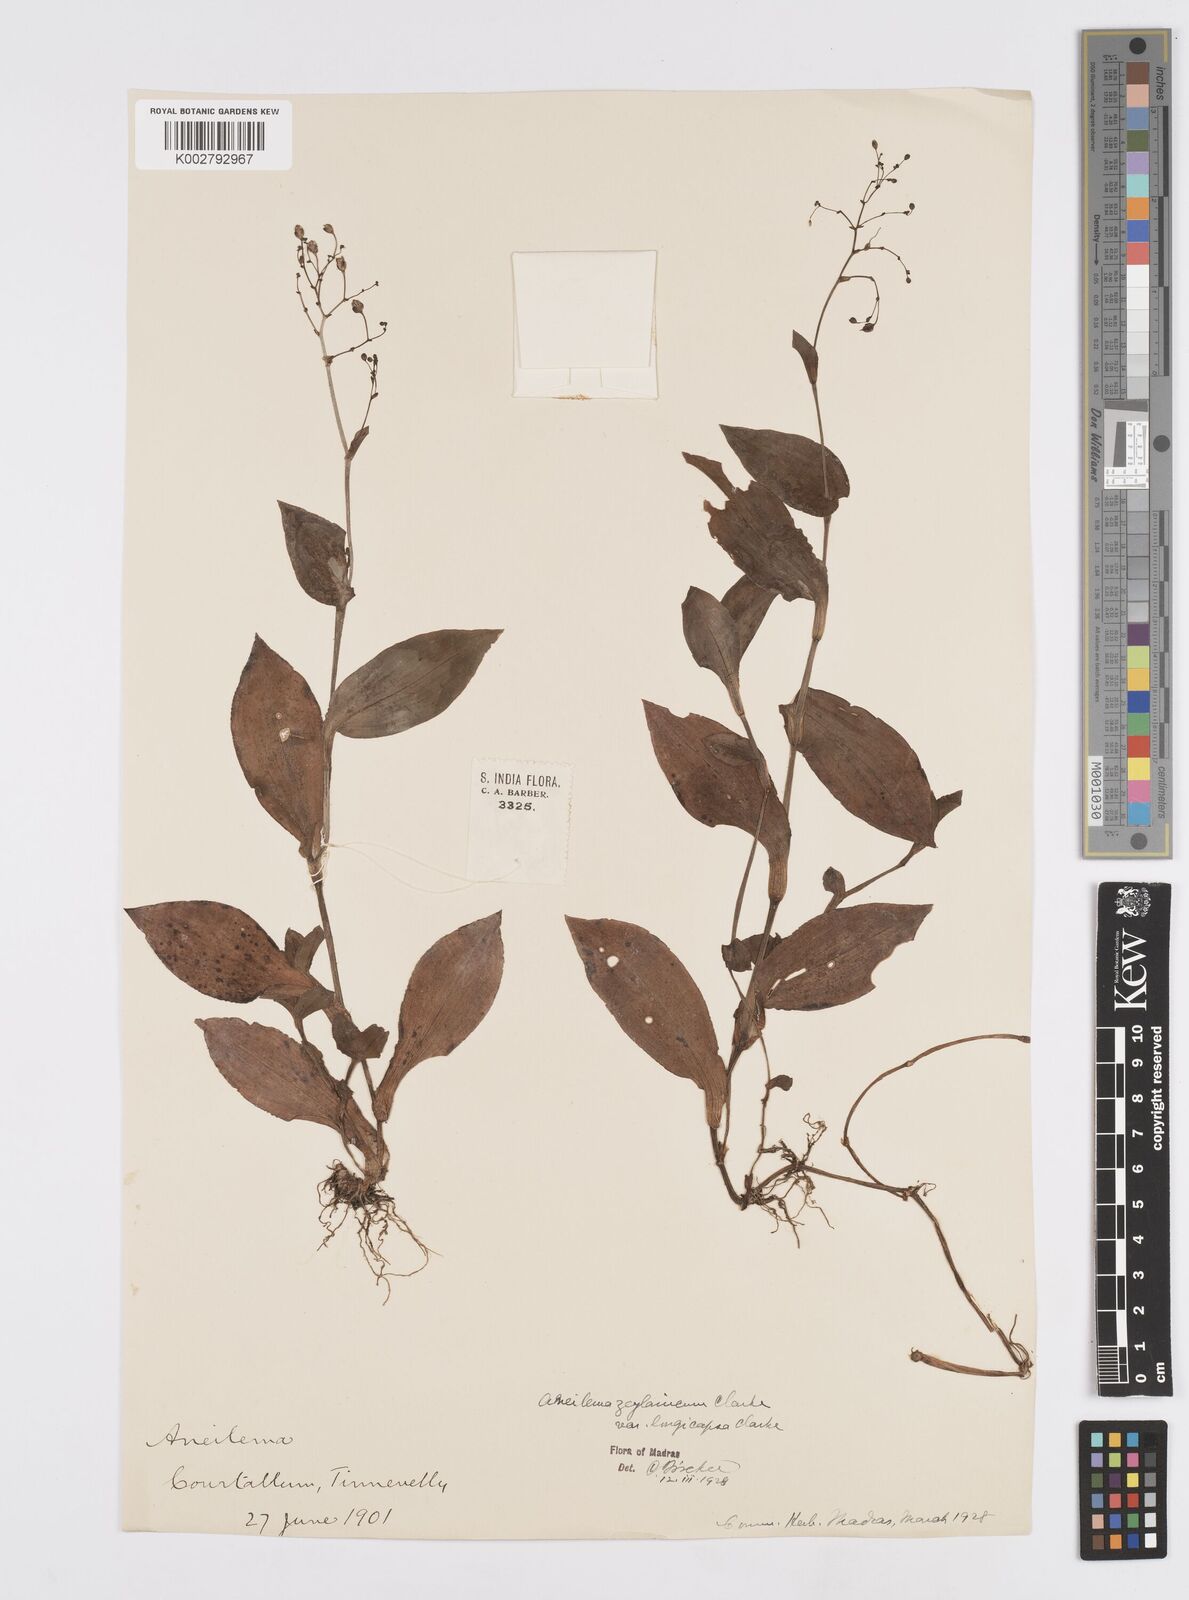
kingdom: Plantae
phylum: Tracheophyta
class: Liliopsida
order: Commelinales
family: Commelinaceae
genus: Murdannia
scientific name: Murdannia zeylanica
